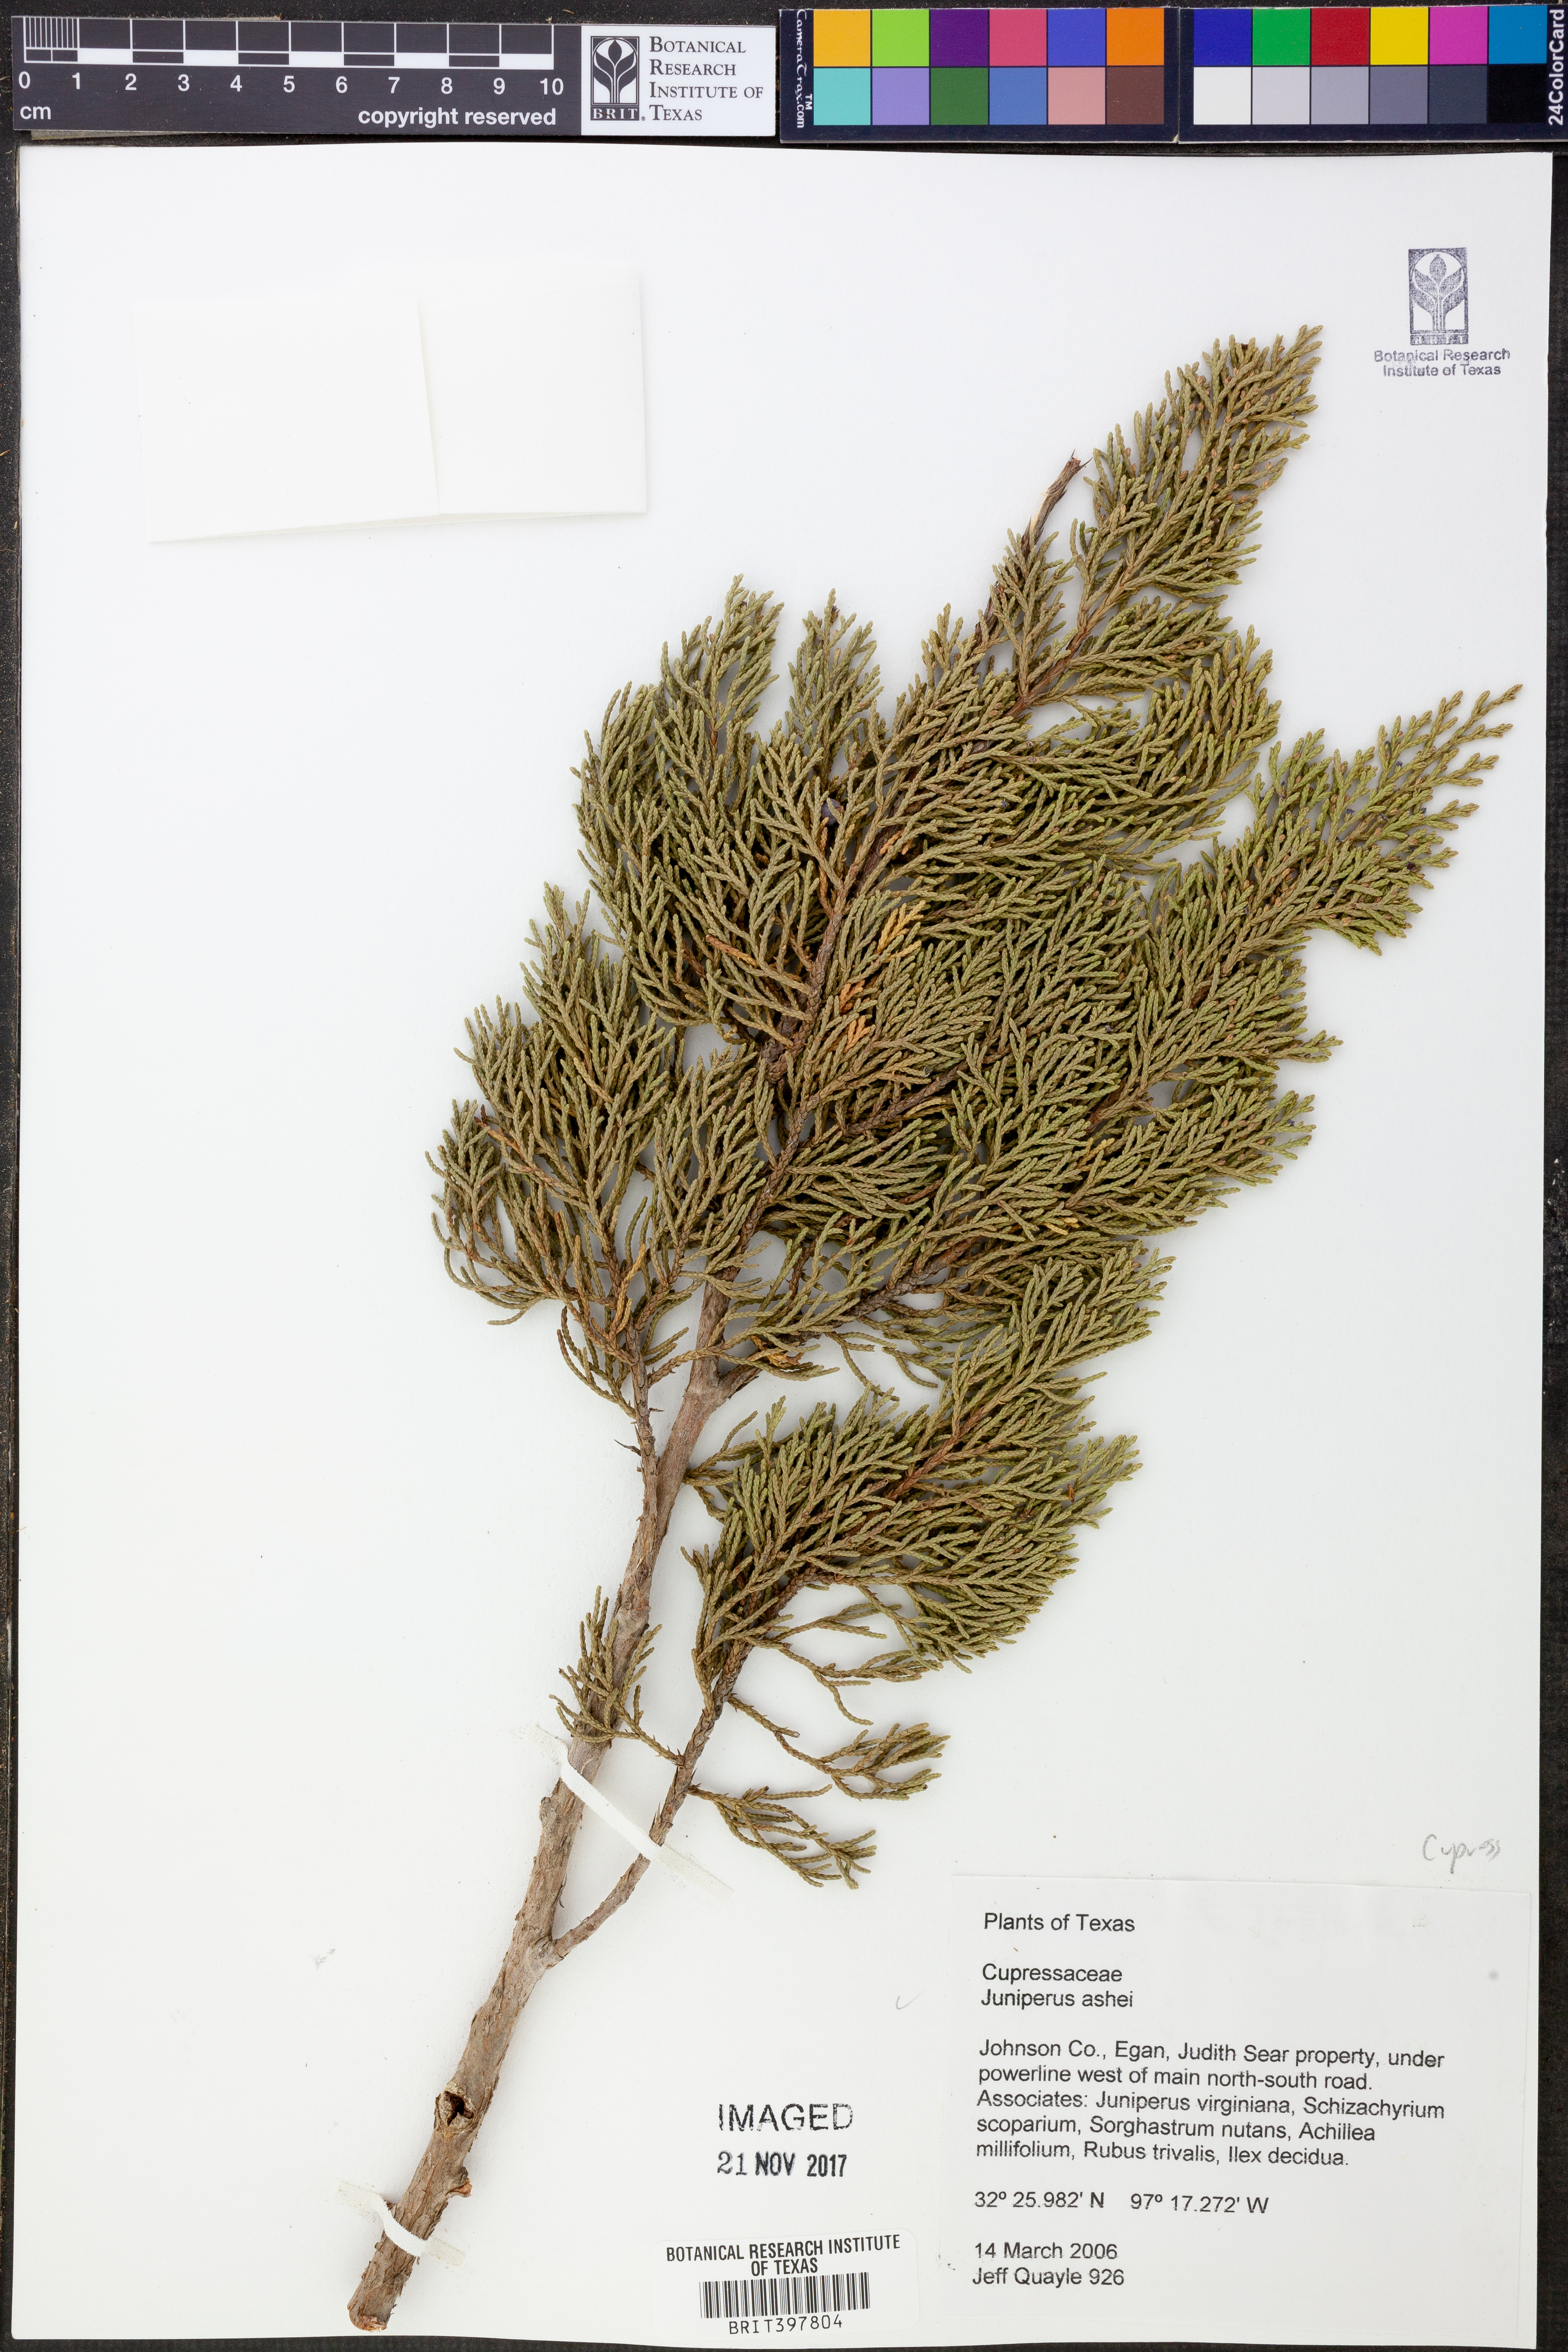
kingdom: Plantae
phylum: Tracheophyta
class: Pinopsida
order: Pinales
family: Cupressaceae
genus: Juniperus
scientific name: Juniperus ashei
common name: Mexican juniper
